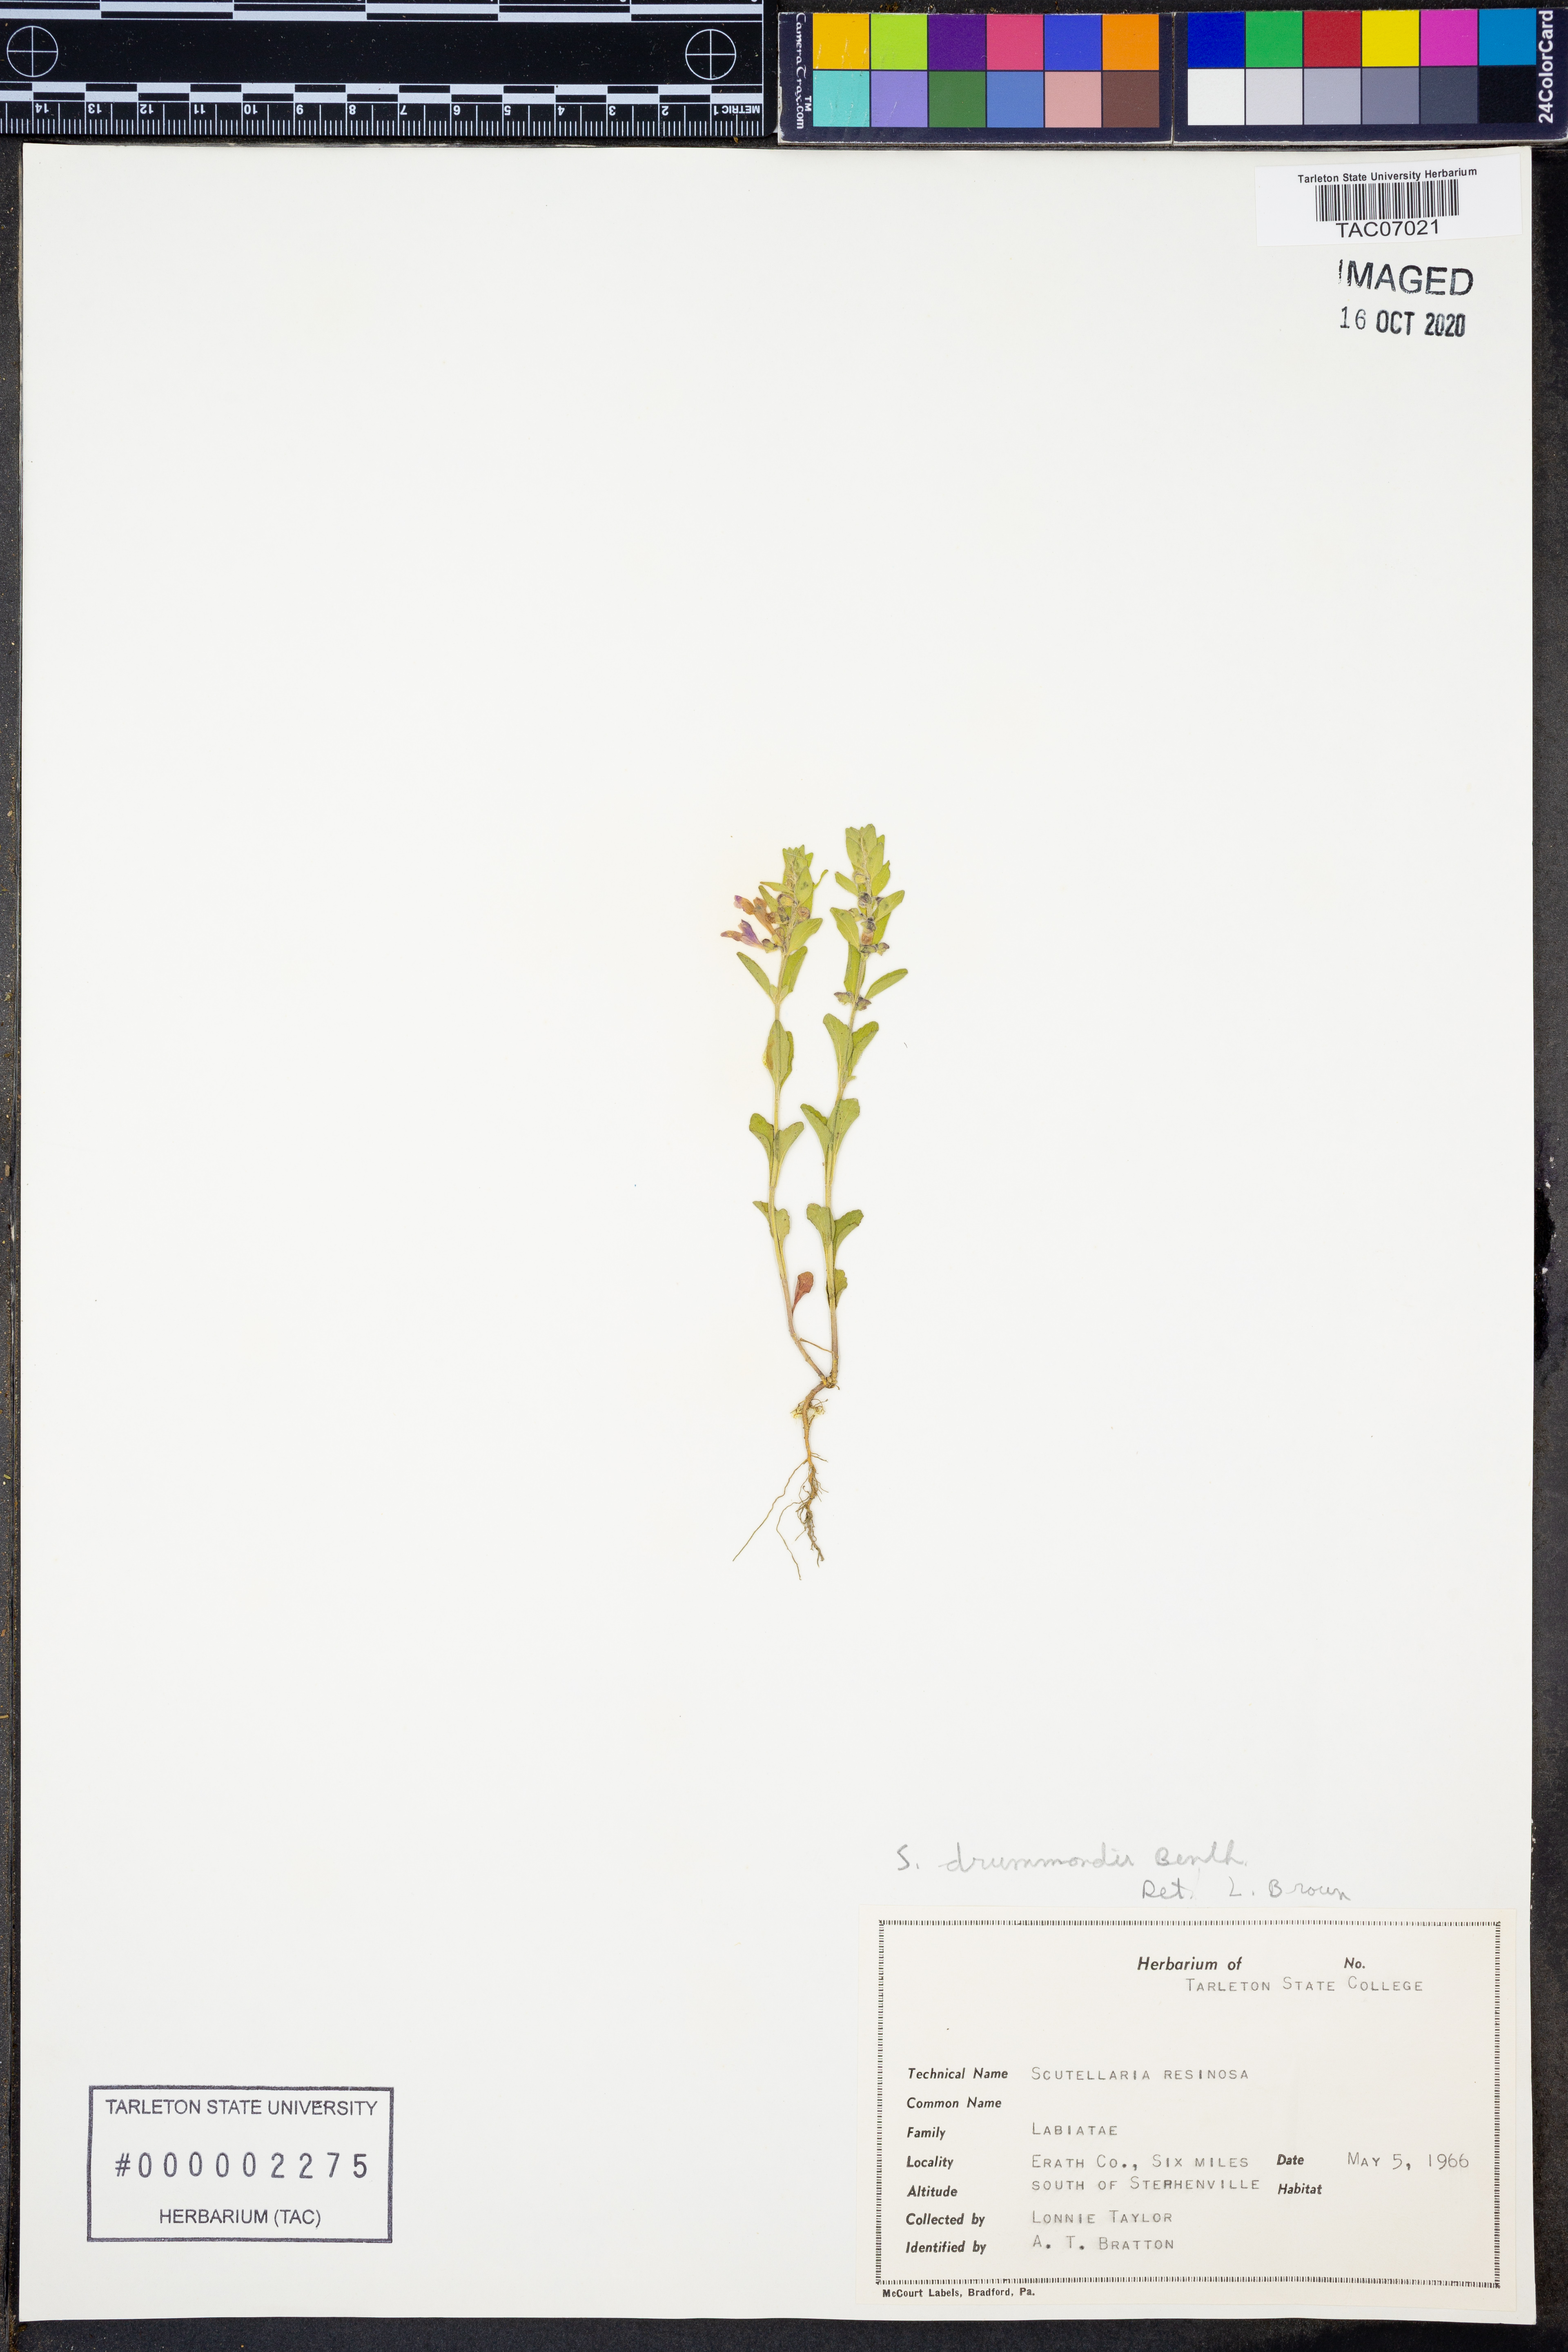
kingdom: Plantae
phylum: Tracheophyta
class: Magnoliopsida
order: Lamiales
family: Lamiaceae
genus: Scutellaria
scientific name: Scutellaria drummondii
